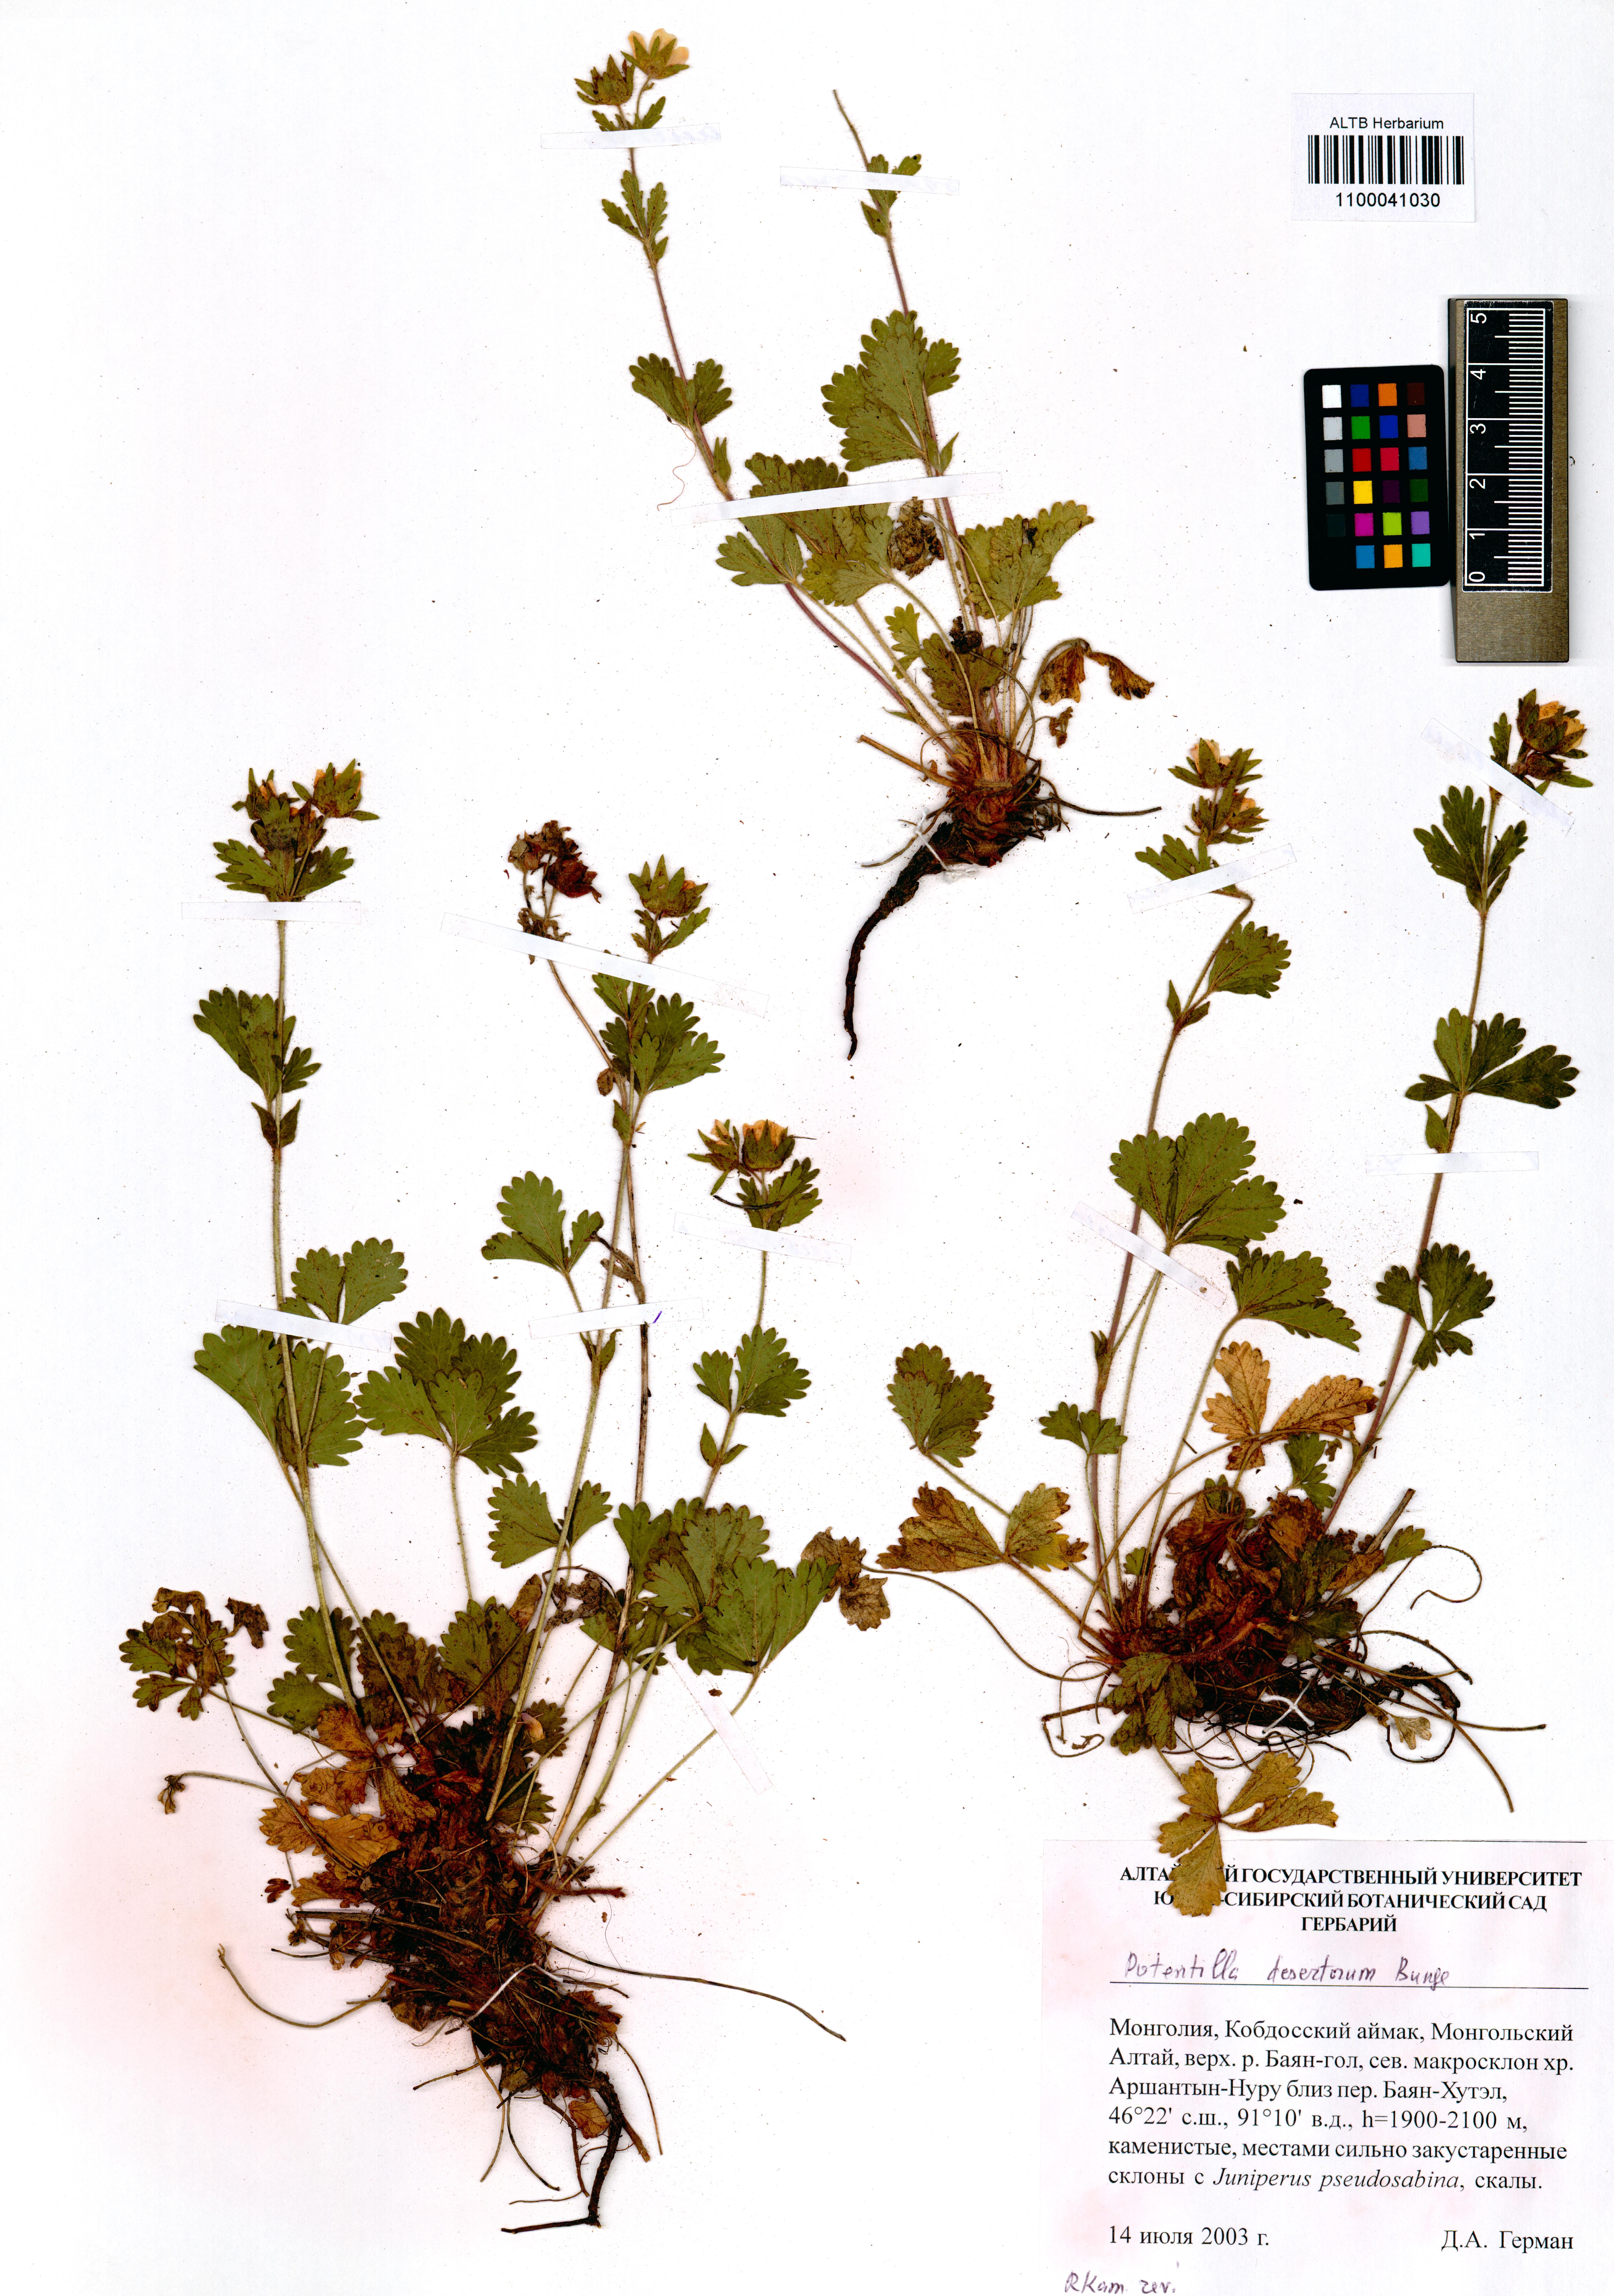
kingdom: Plantae
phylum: Tracheophyta
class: Magnoliopsida
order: Rosales
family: Rosaceae
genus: Potentilla
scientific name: Potentilla desertorum
